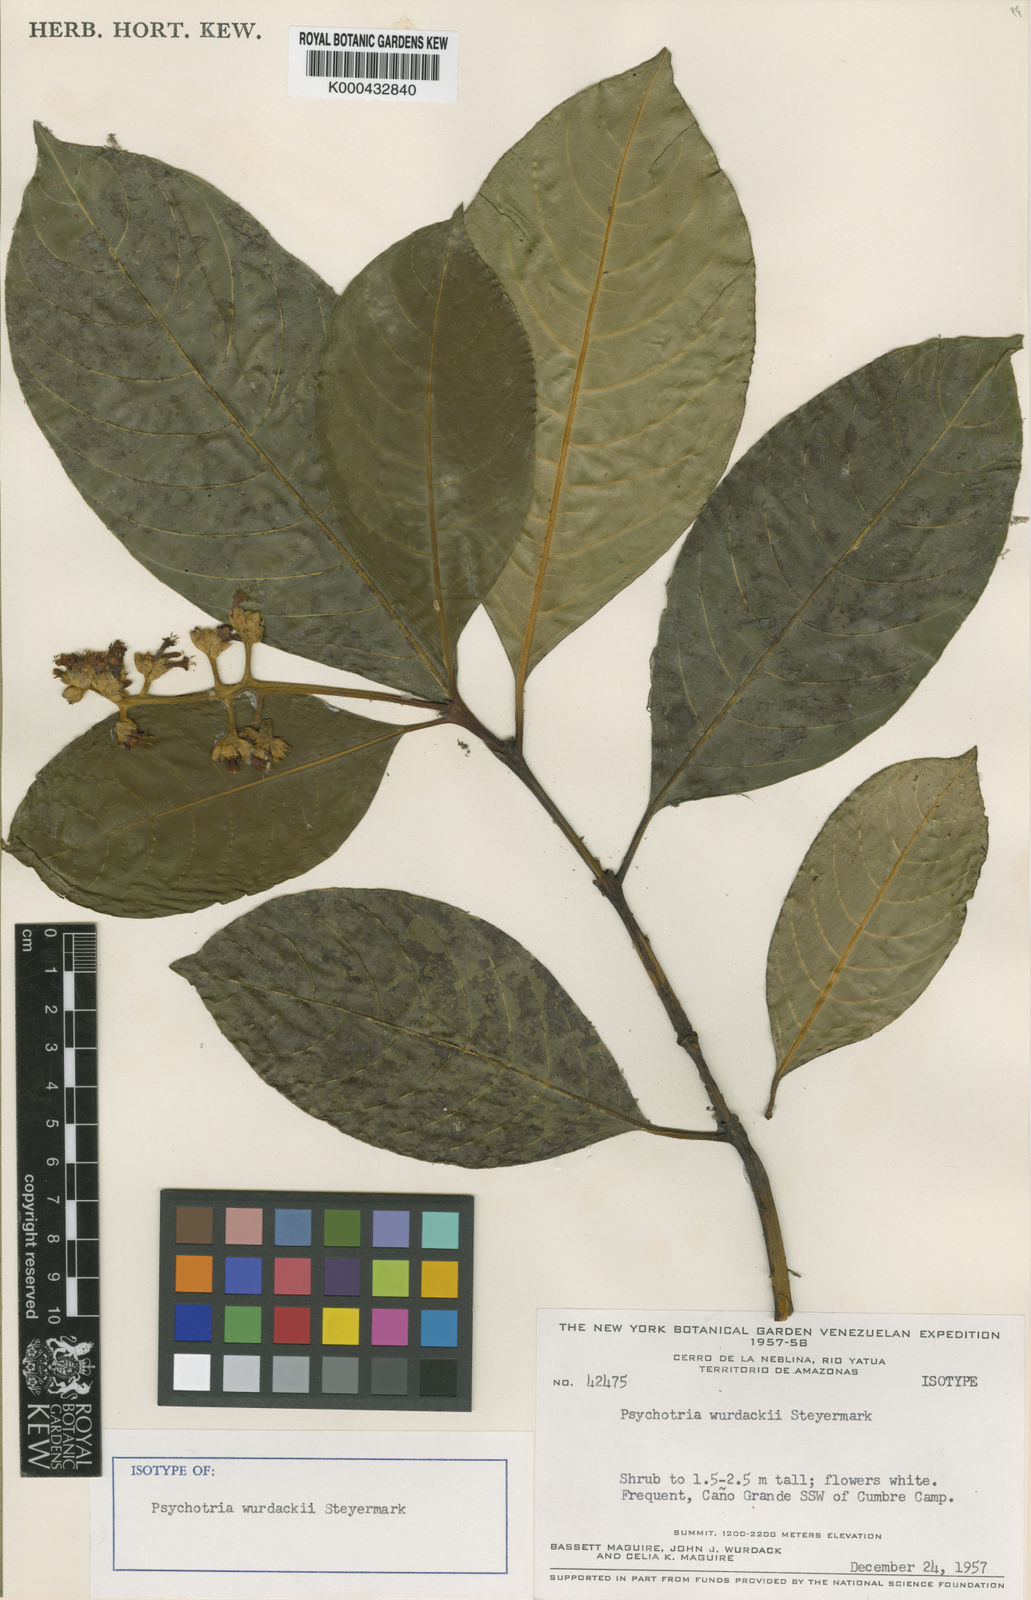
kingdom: Plantae
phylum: Tracheophyta
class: Magnoliopsida
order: Gentianales
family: Rubiaceae
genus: Palicourea
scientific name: Palicourea wurdackii
